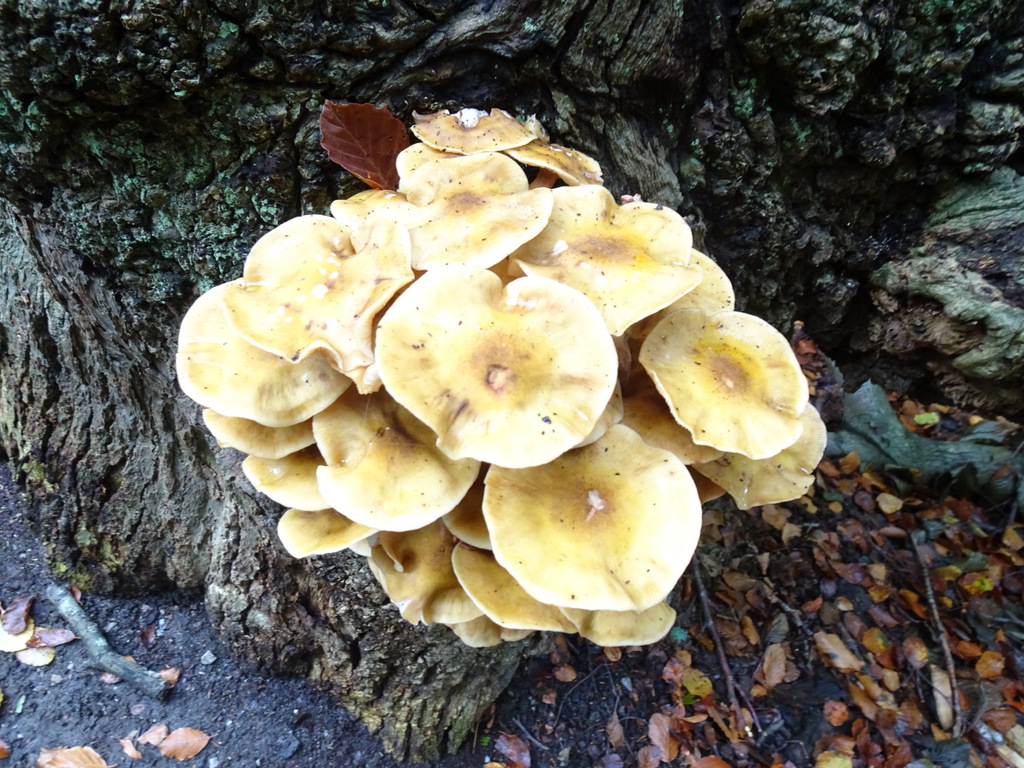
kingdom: Fungi
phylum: Basidiomycota
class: Agaricomycetes
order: Agaricales
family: Physalacriaceae
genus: Armillaria
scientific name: Armillaria mellea
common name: ægte honningsvamp
